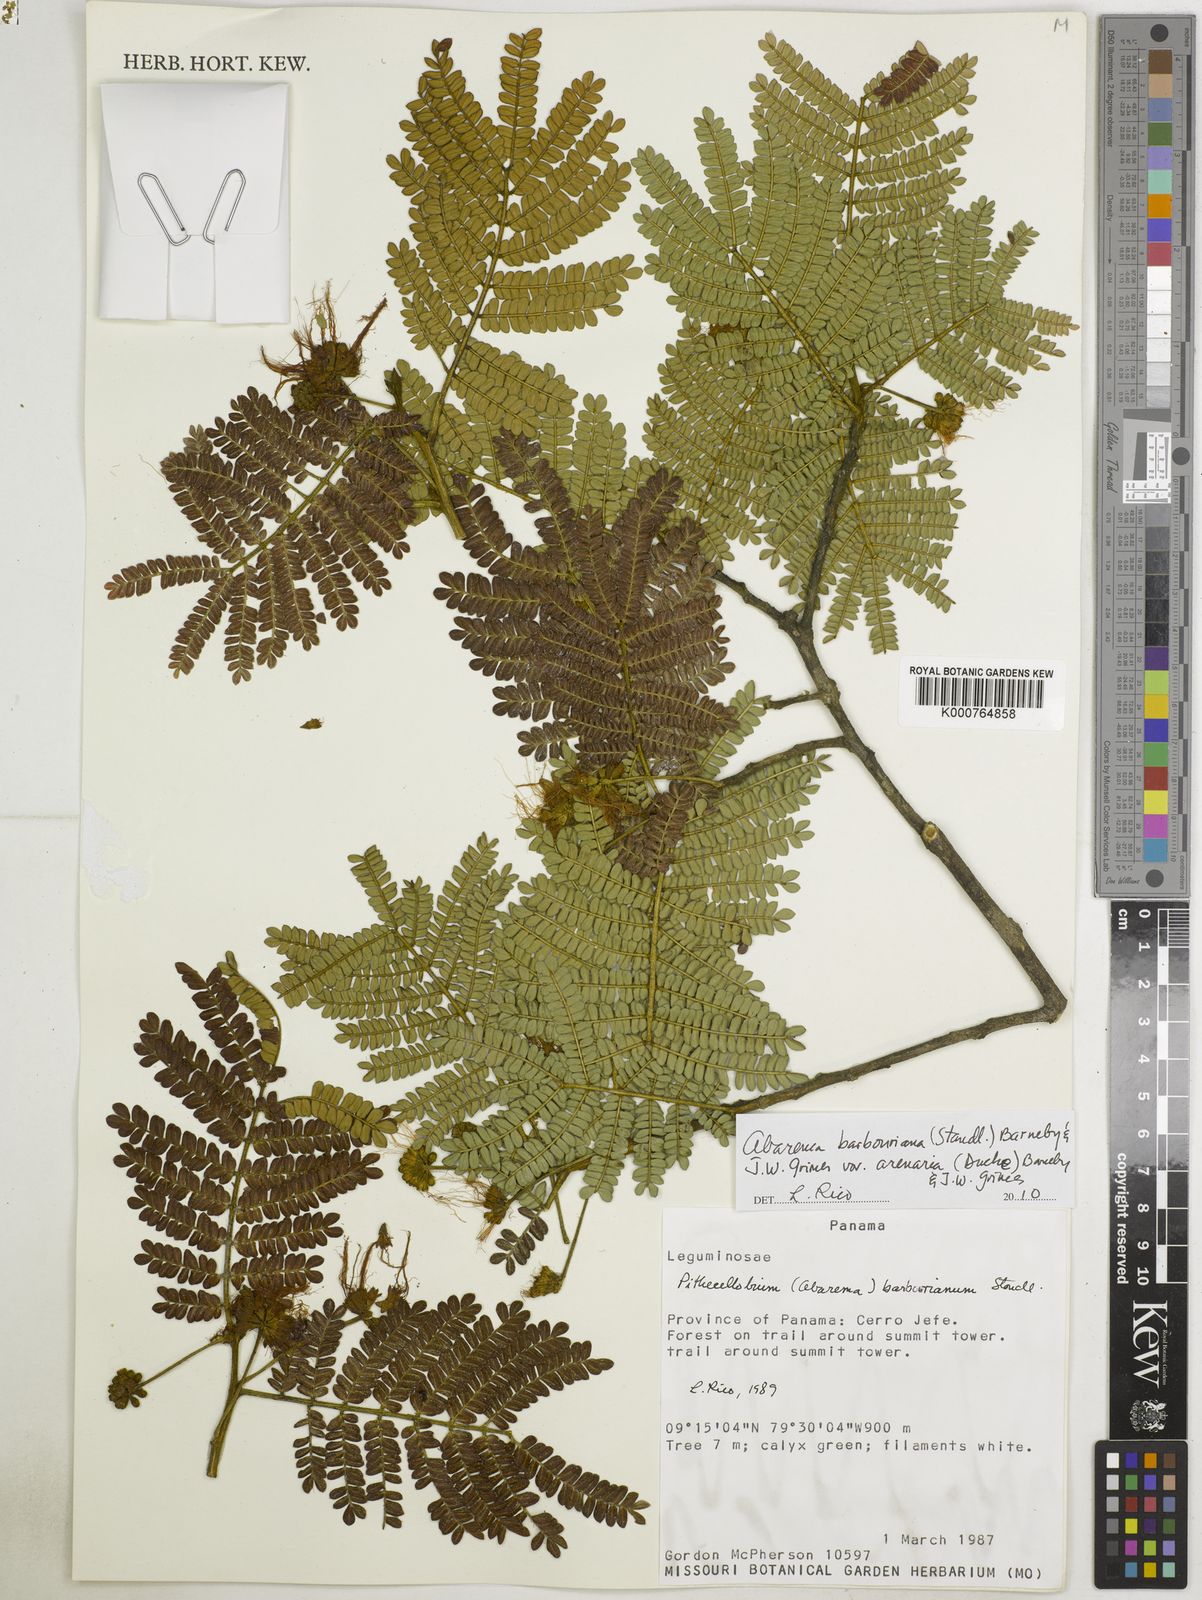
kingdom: Plantae
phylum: Tracheophyta
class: Magnoliopsida
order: Fabales
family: Fabaceae
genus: Jupunba
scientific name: Jupunba barbouriana
